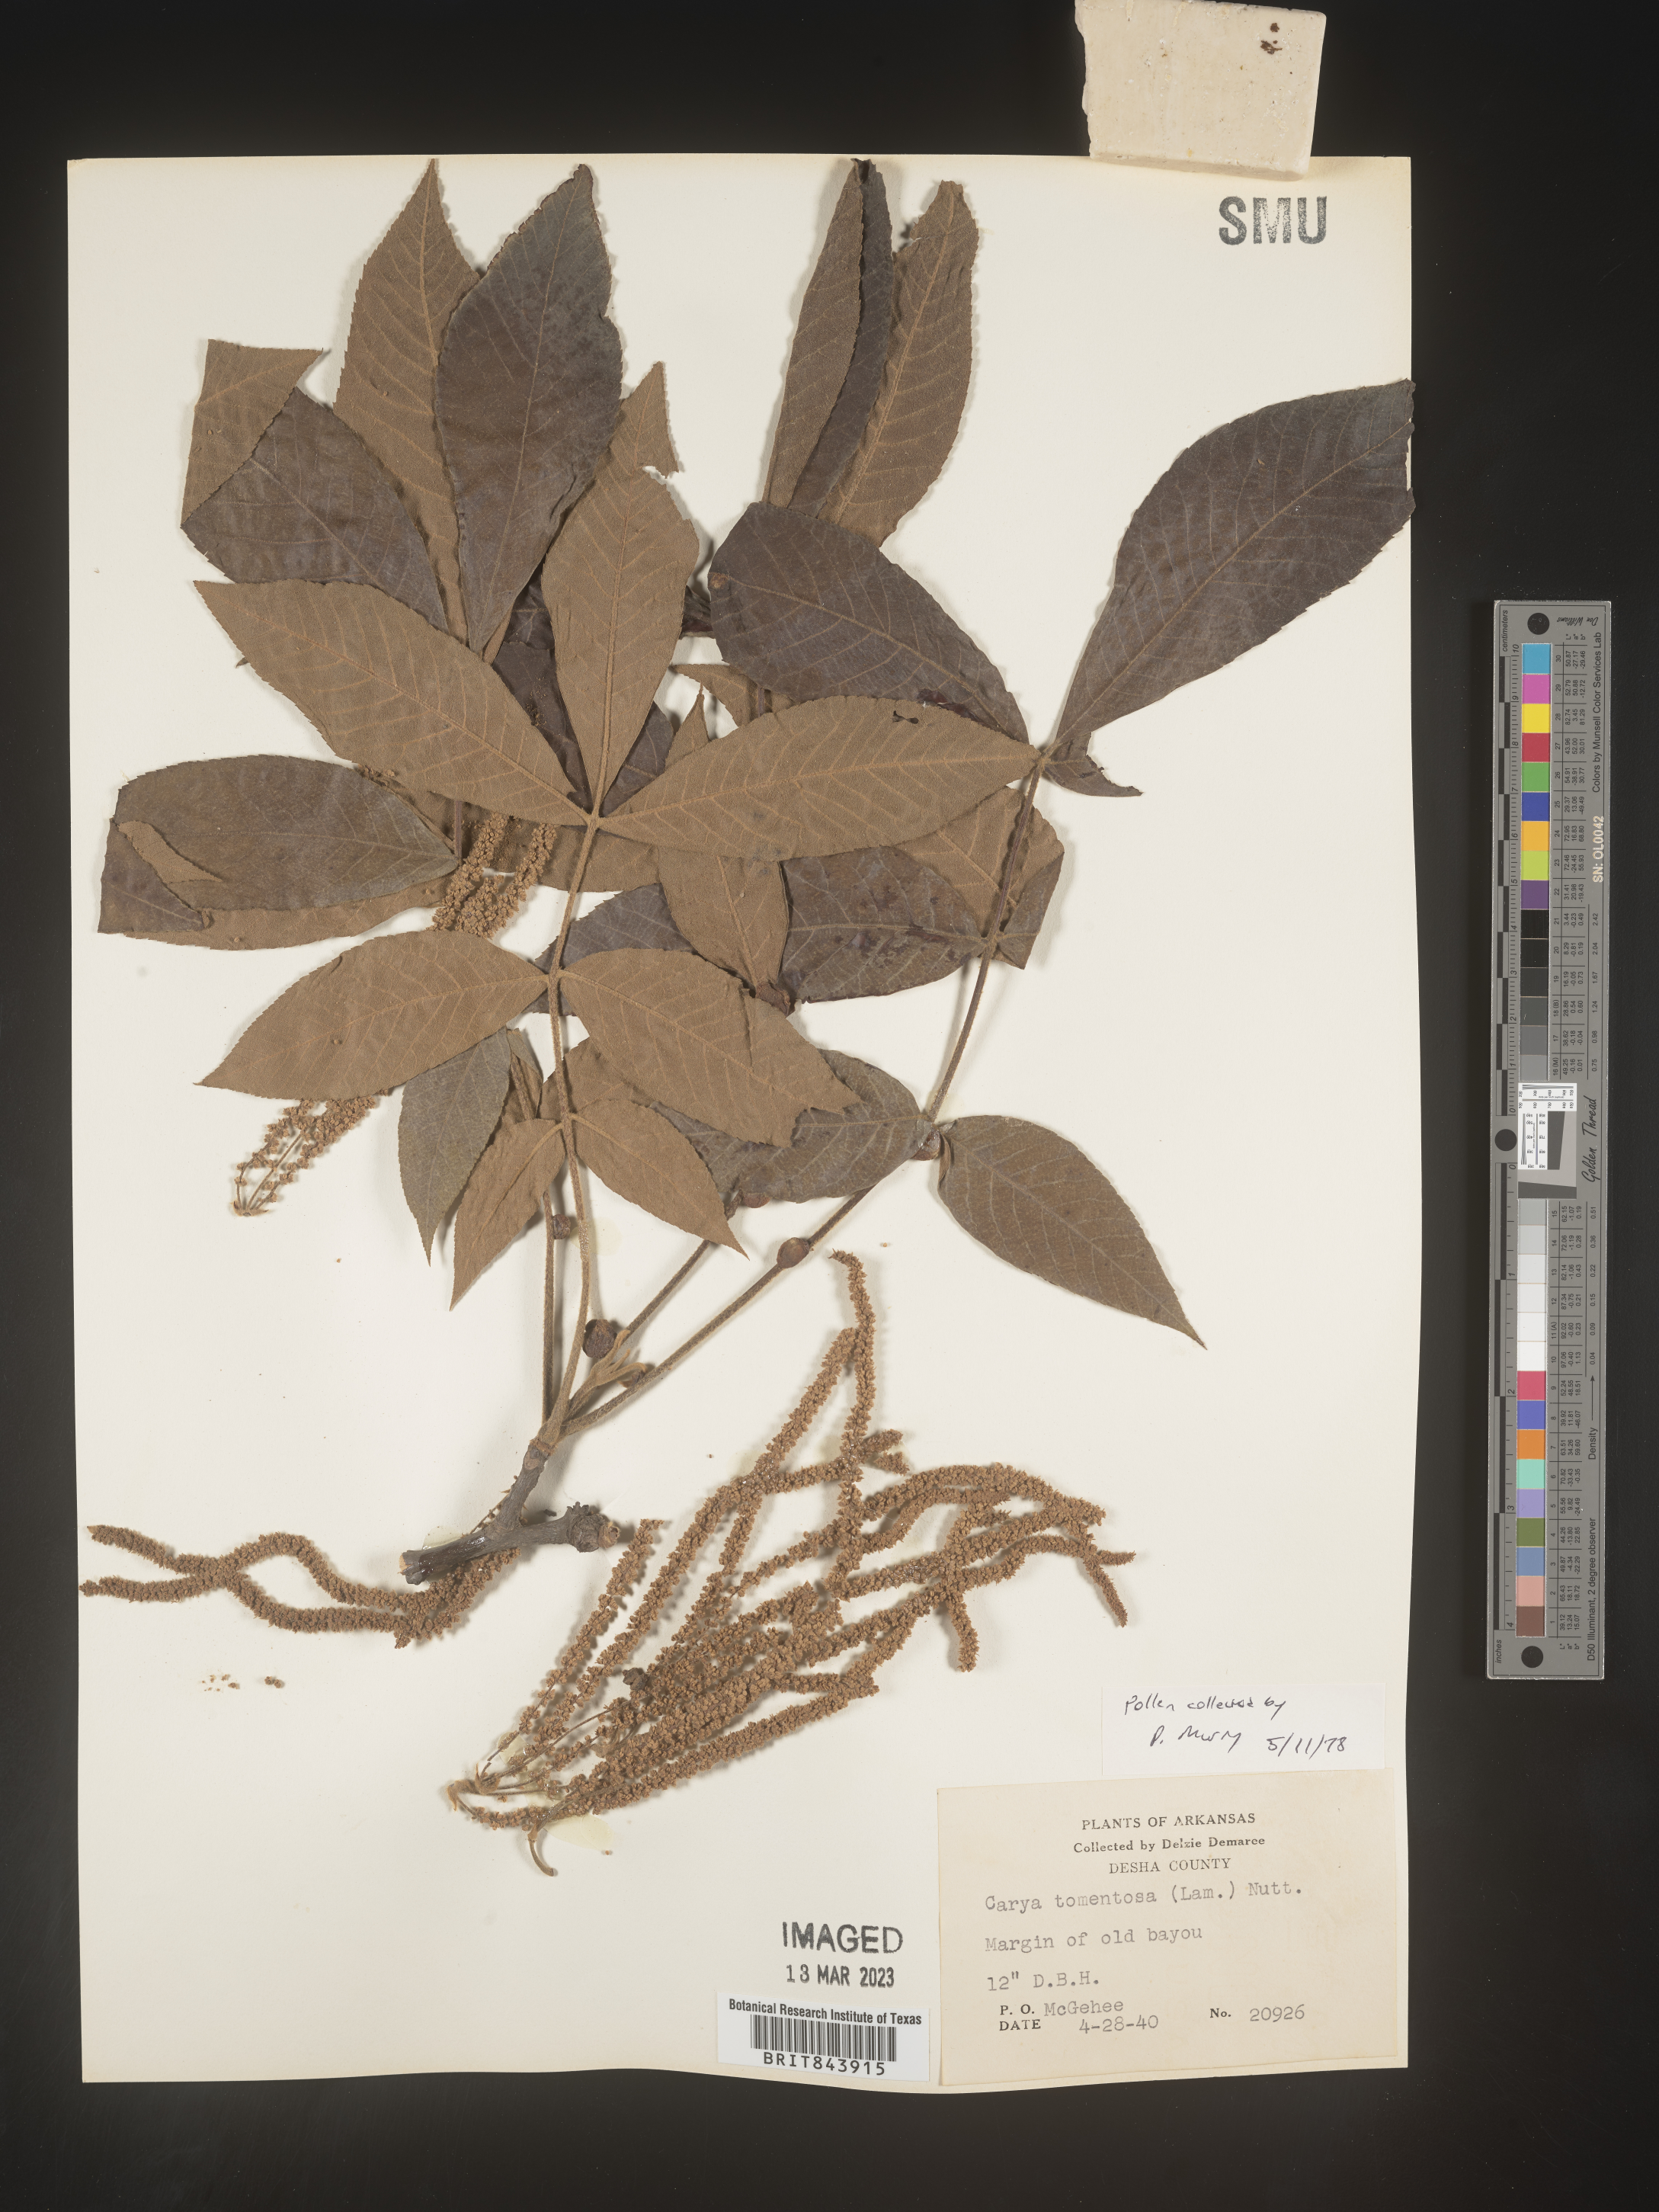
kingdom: Plantae
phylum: Tracheophyta
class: Magnoliopsida
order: Fagales
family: Juglandaceae
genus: Carya
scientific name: Carya alba
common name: Mockernut hickory
